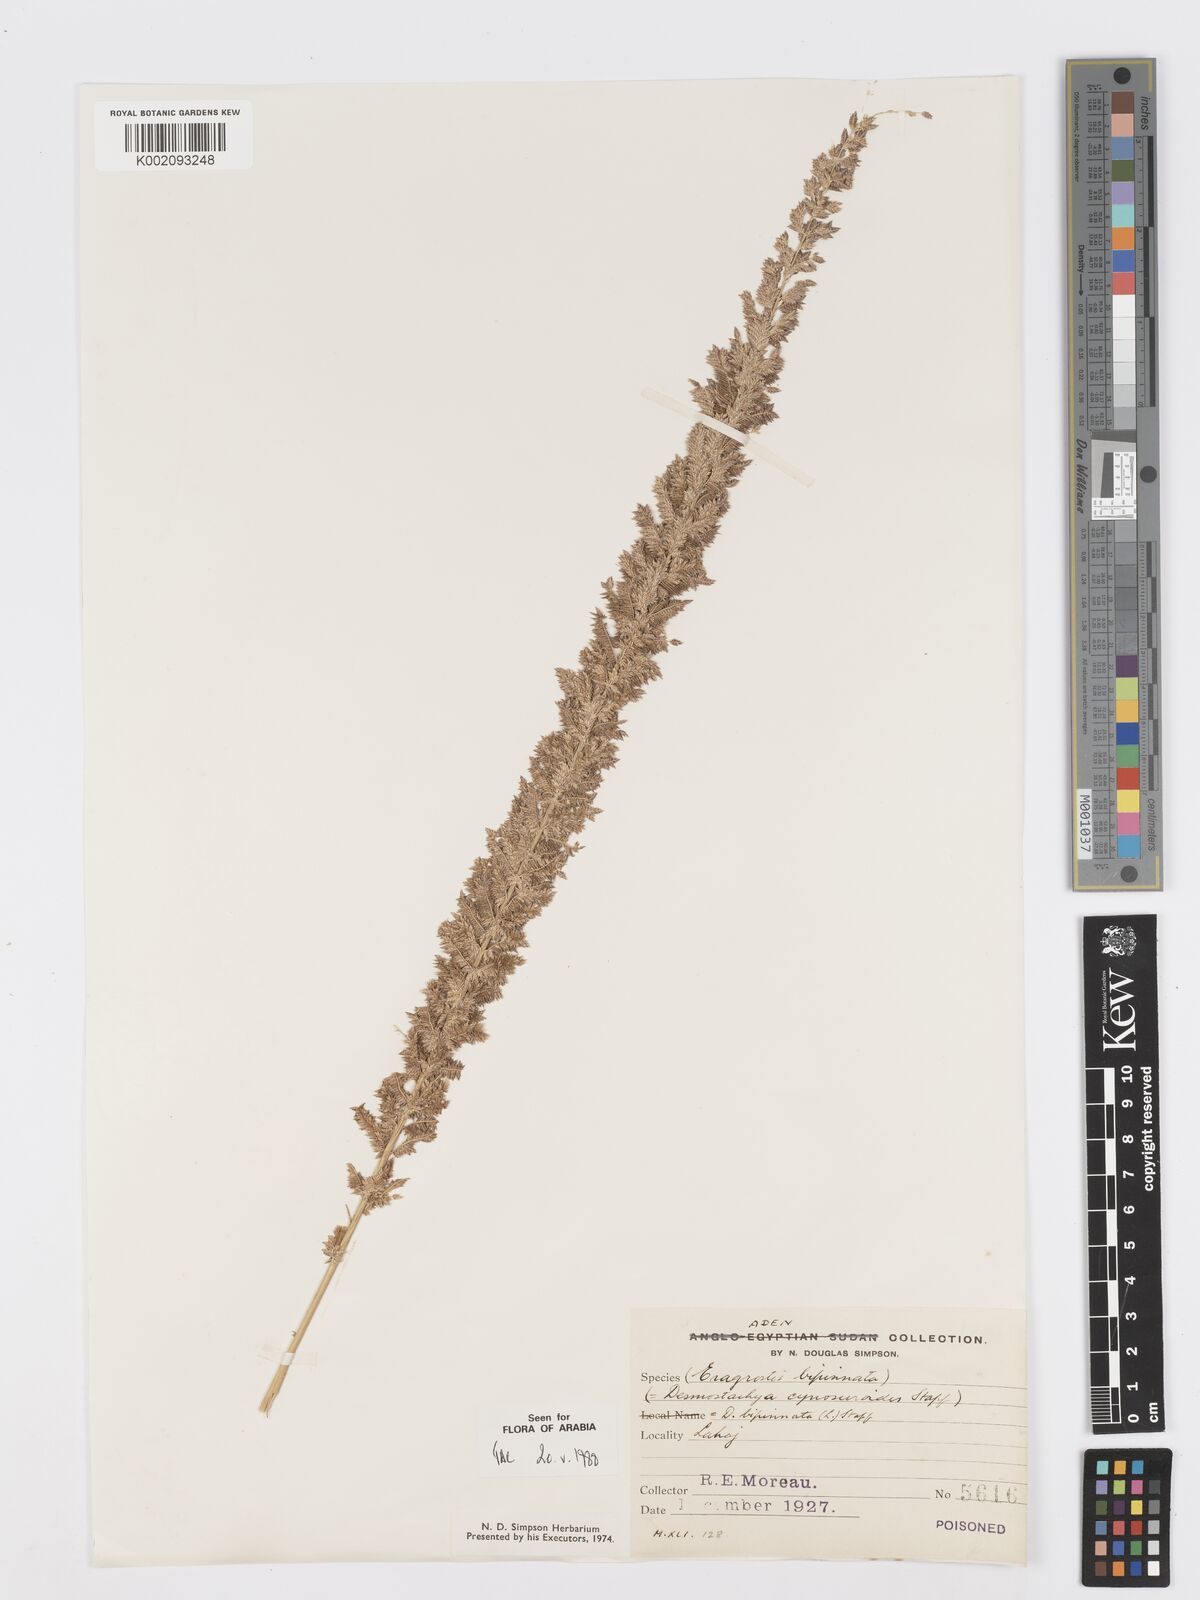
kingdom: Plantae
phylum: Tracheophyta
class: Liliopsida
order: Poales
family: Poaceae
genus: Desmostachya
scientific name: Desmostachya bipinnata
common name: Crowfoot grass
